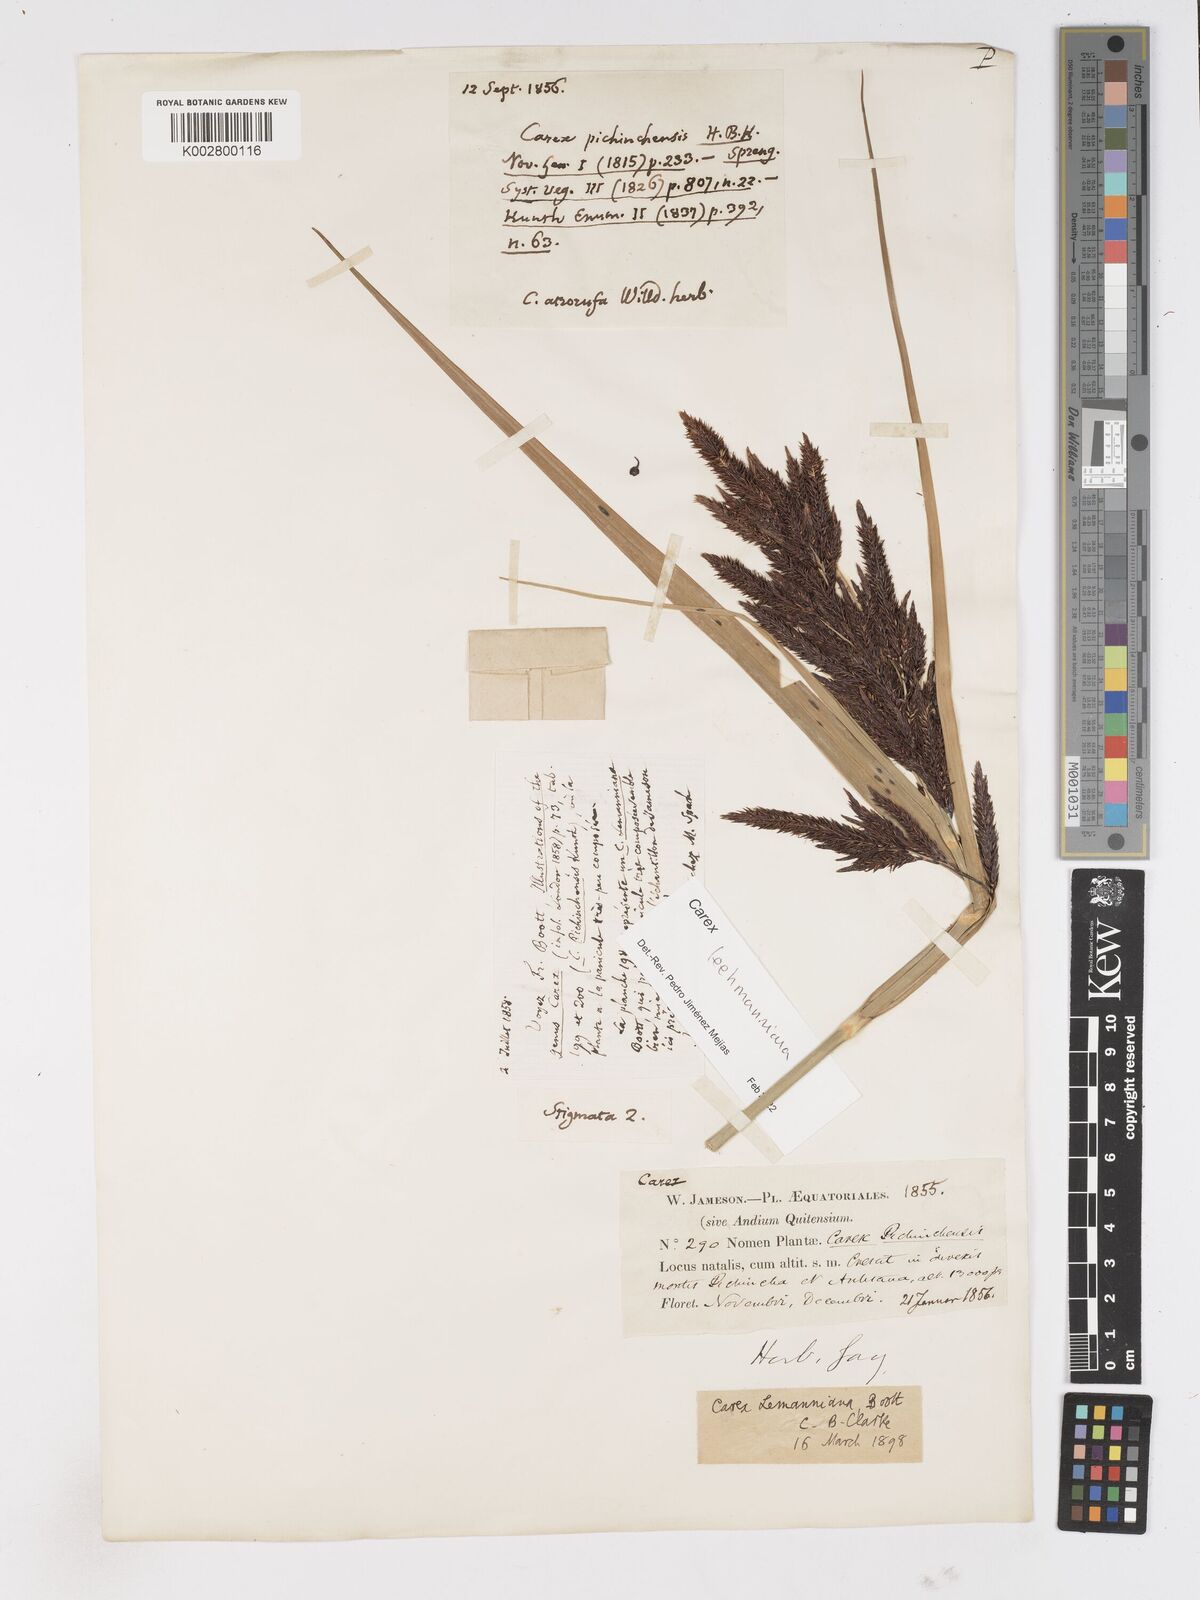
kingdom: Plantae
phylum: Tracheophyta
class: Liliopsida
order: Poales
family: Cyperaceae
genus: Carex
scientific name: Carex lemanniana
